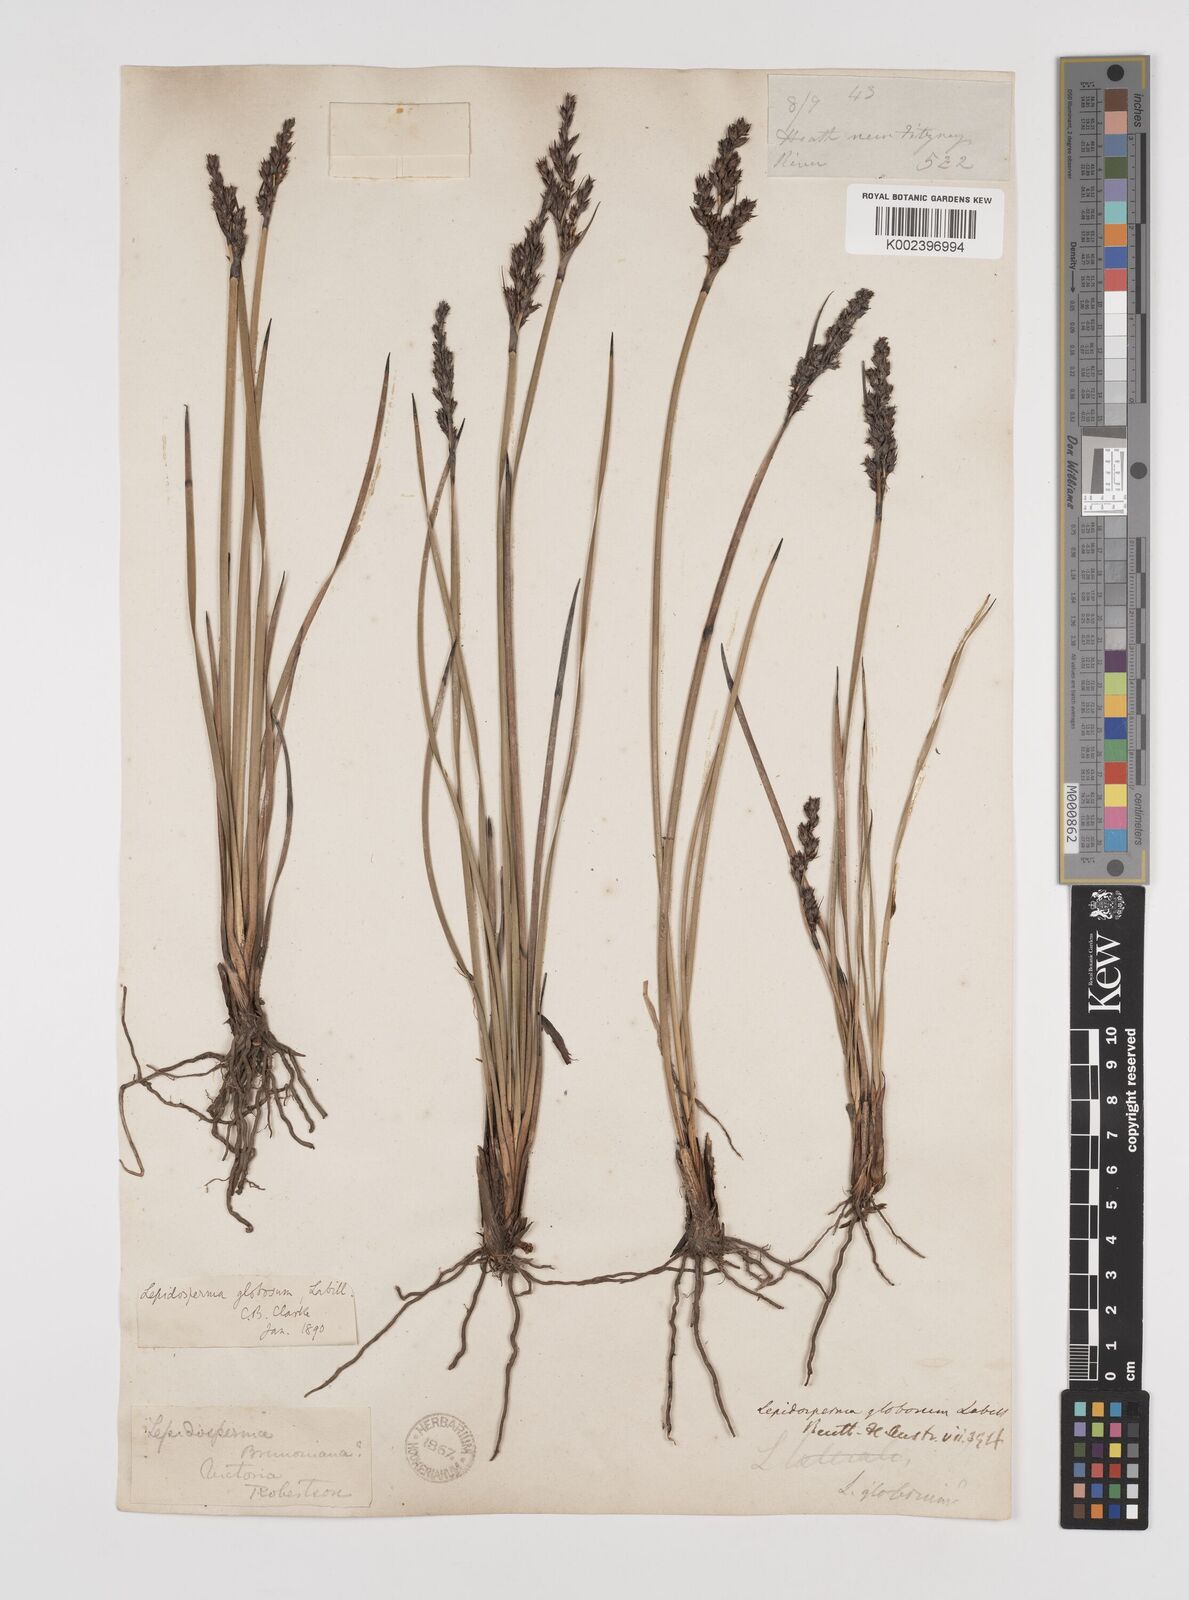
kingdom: Plantae
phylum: Tracheophyta
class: Liliopsida
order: Poales
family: Cyperaceae
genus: Lepidosperma
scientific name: Lepidosperma globosum
